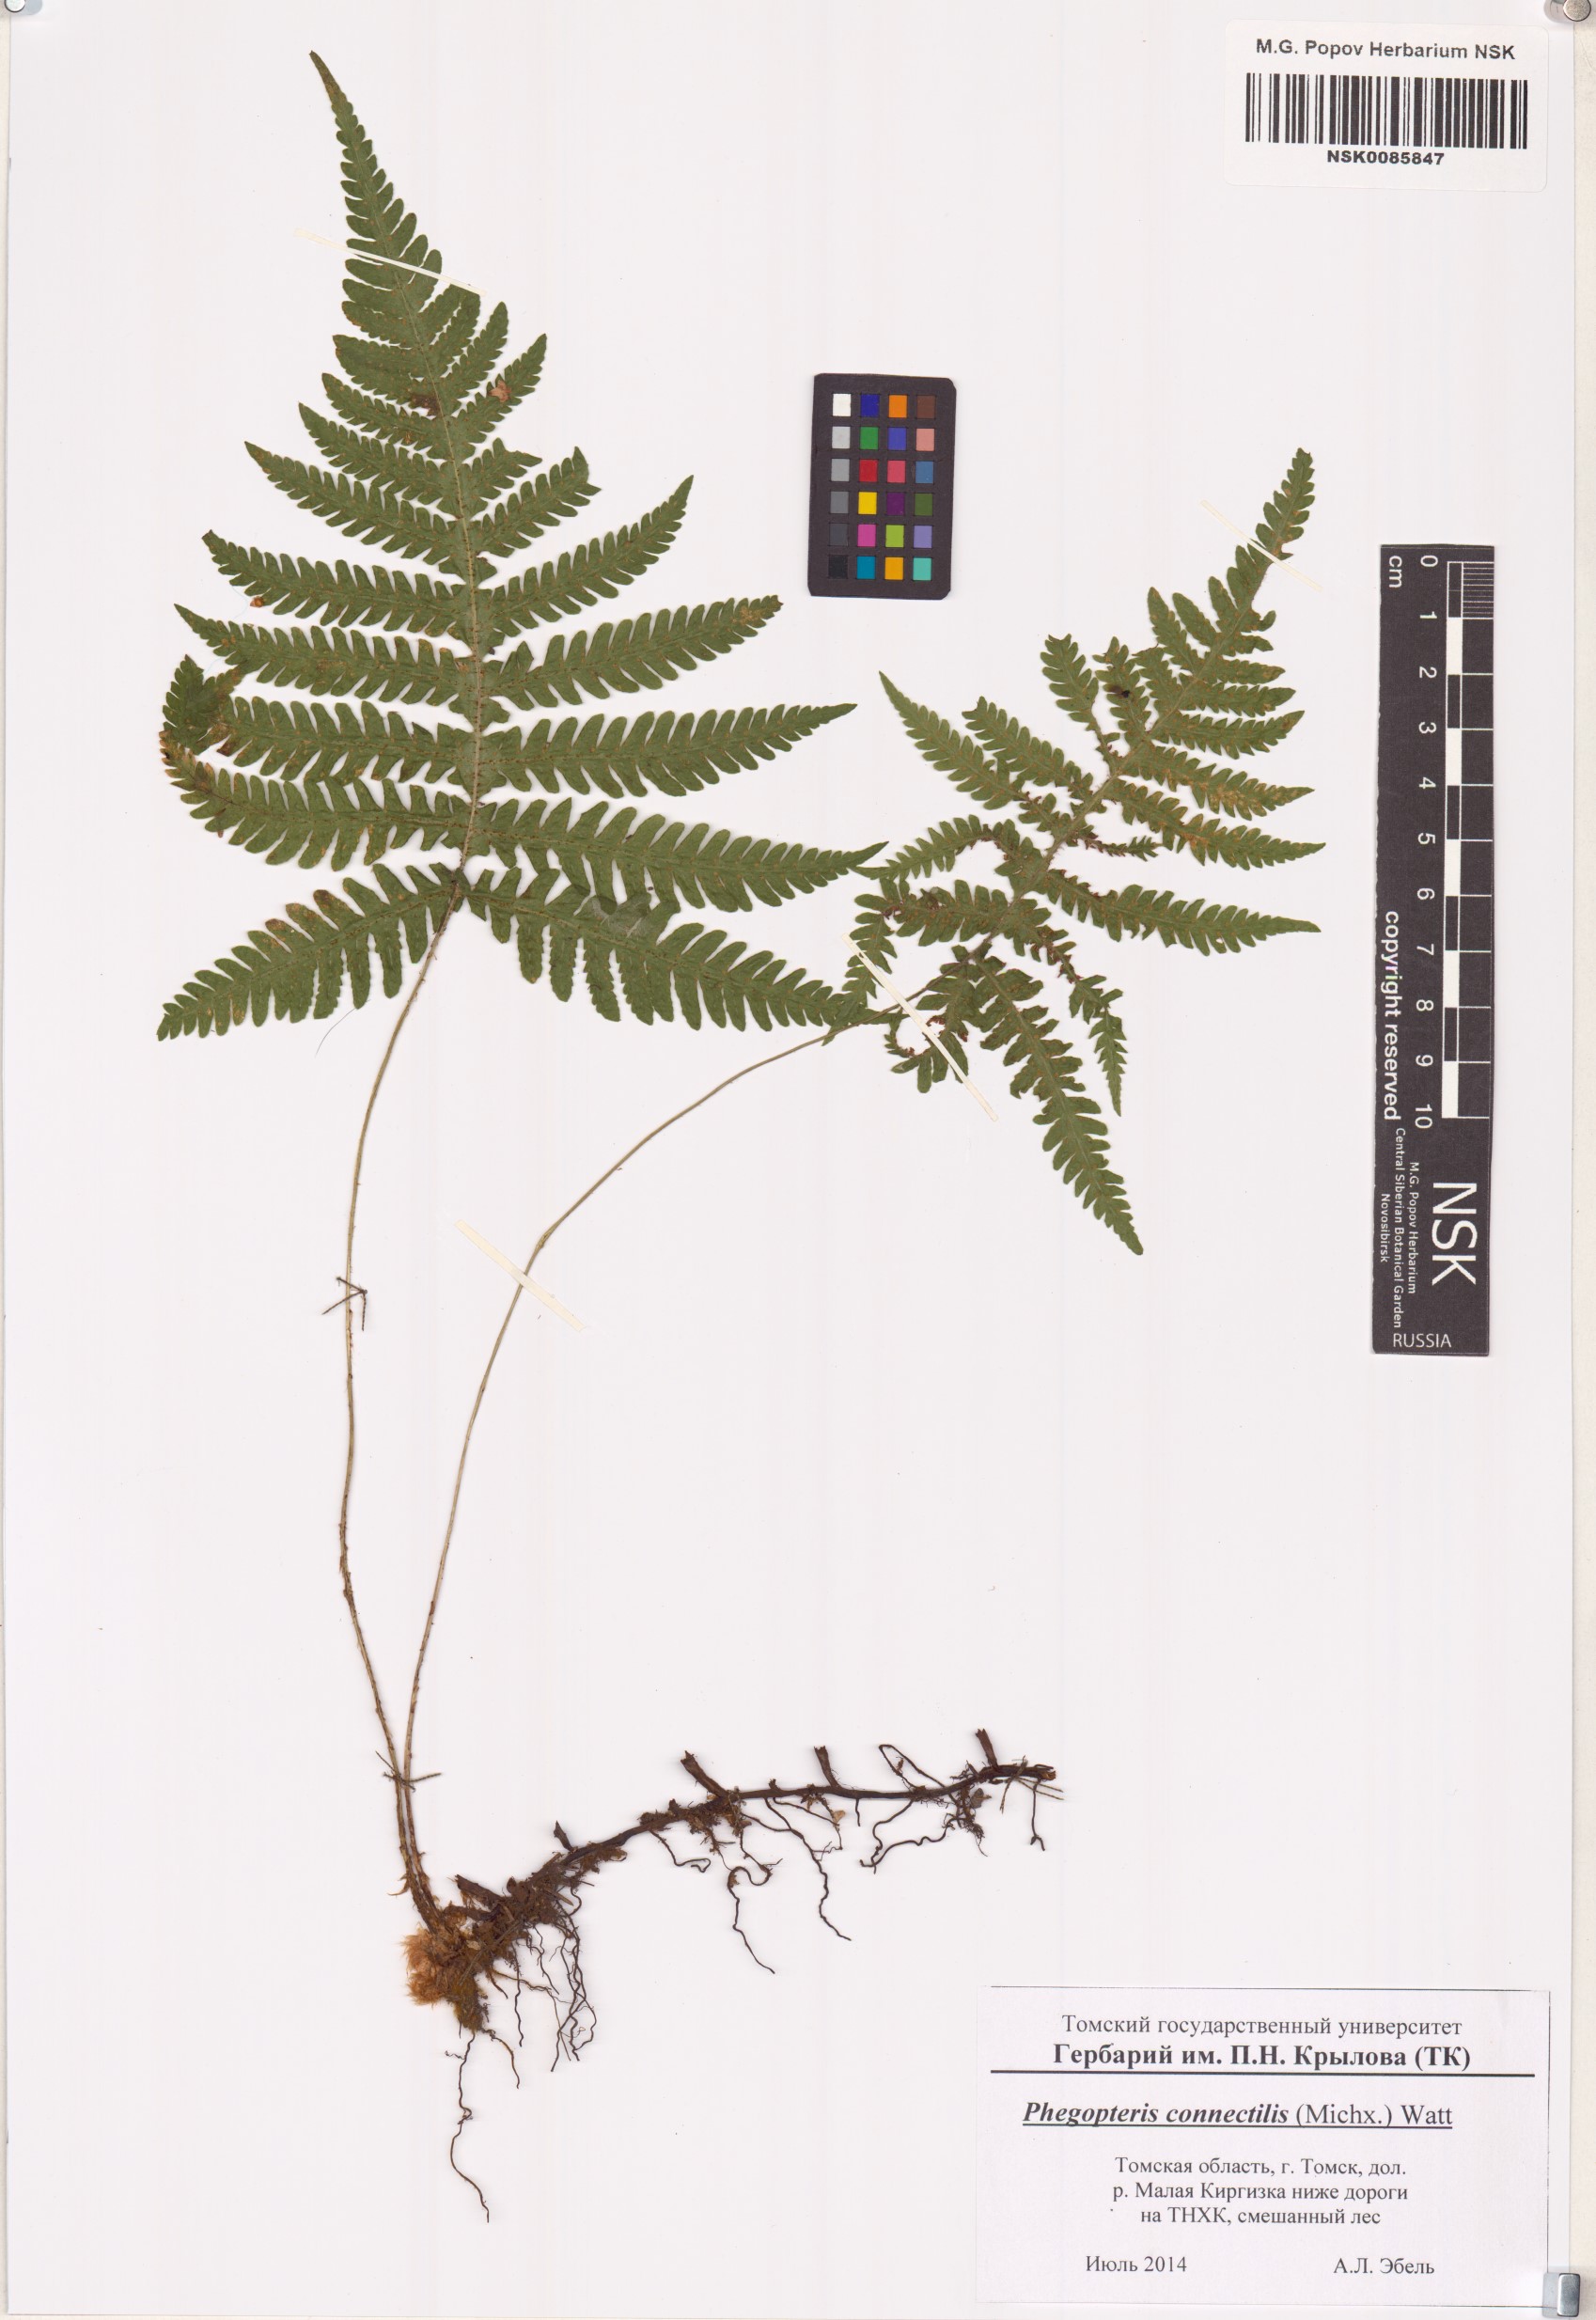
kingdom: Plantae
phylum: Tracheophyta
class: Polypodiopsida
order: Polypodiales
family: Thelypteridaceae
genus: Phegopteris
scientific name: Phegopteris connectilis
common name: Beech fern
